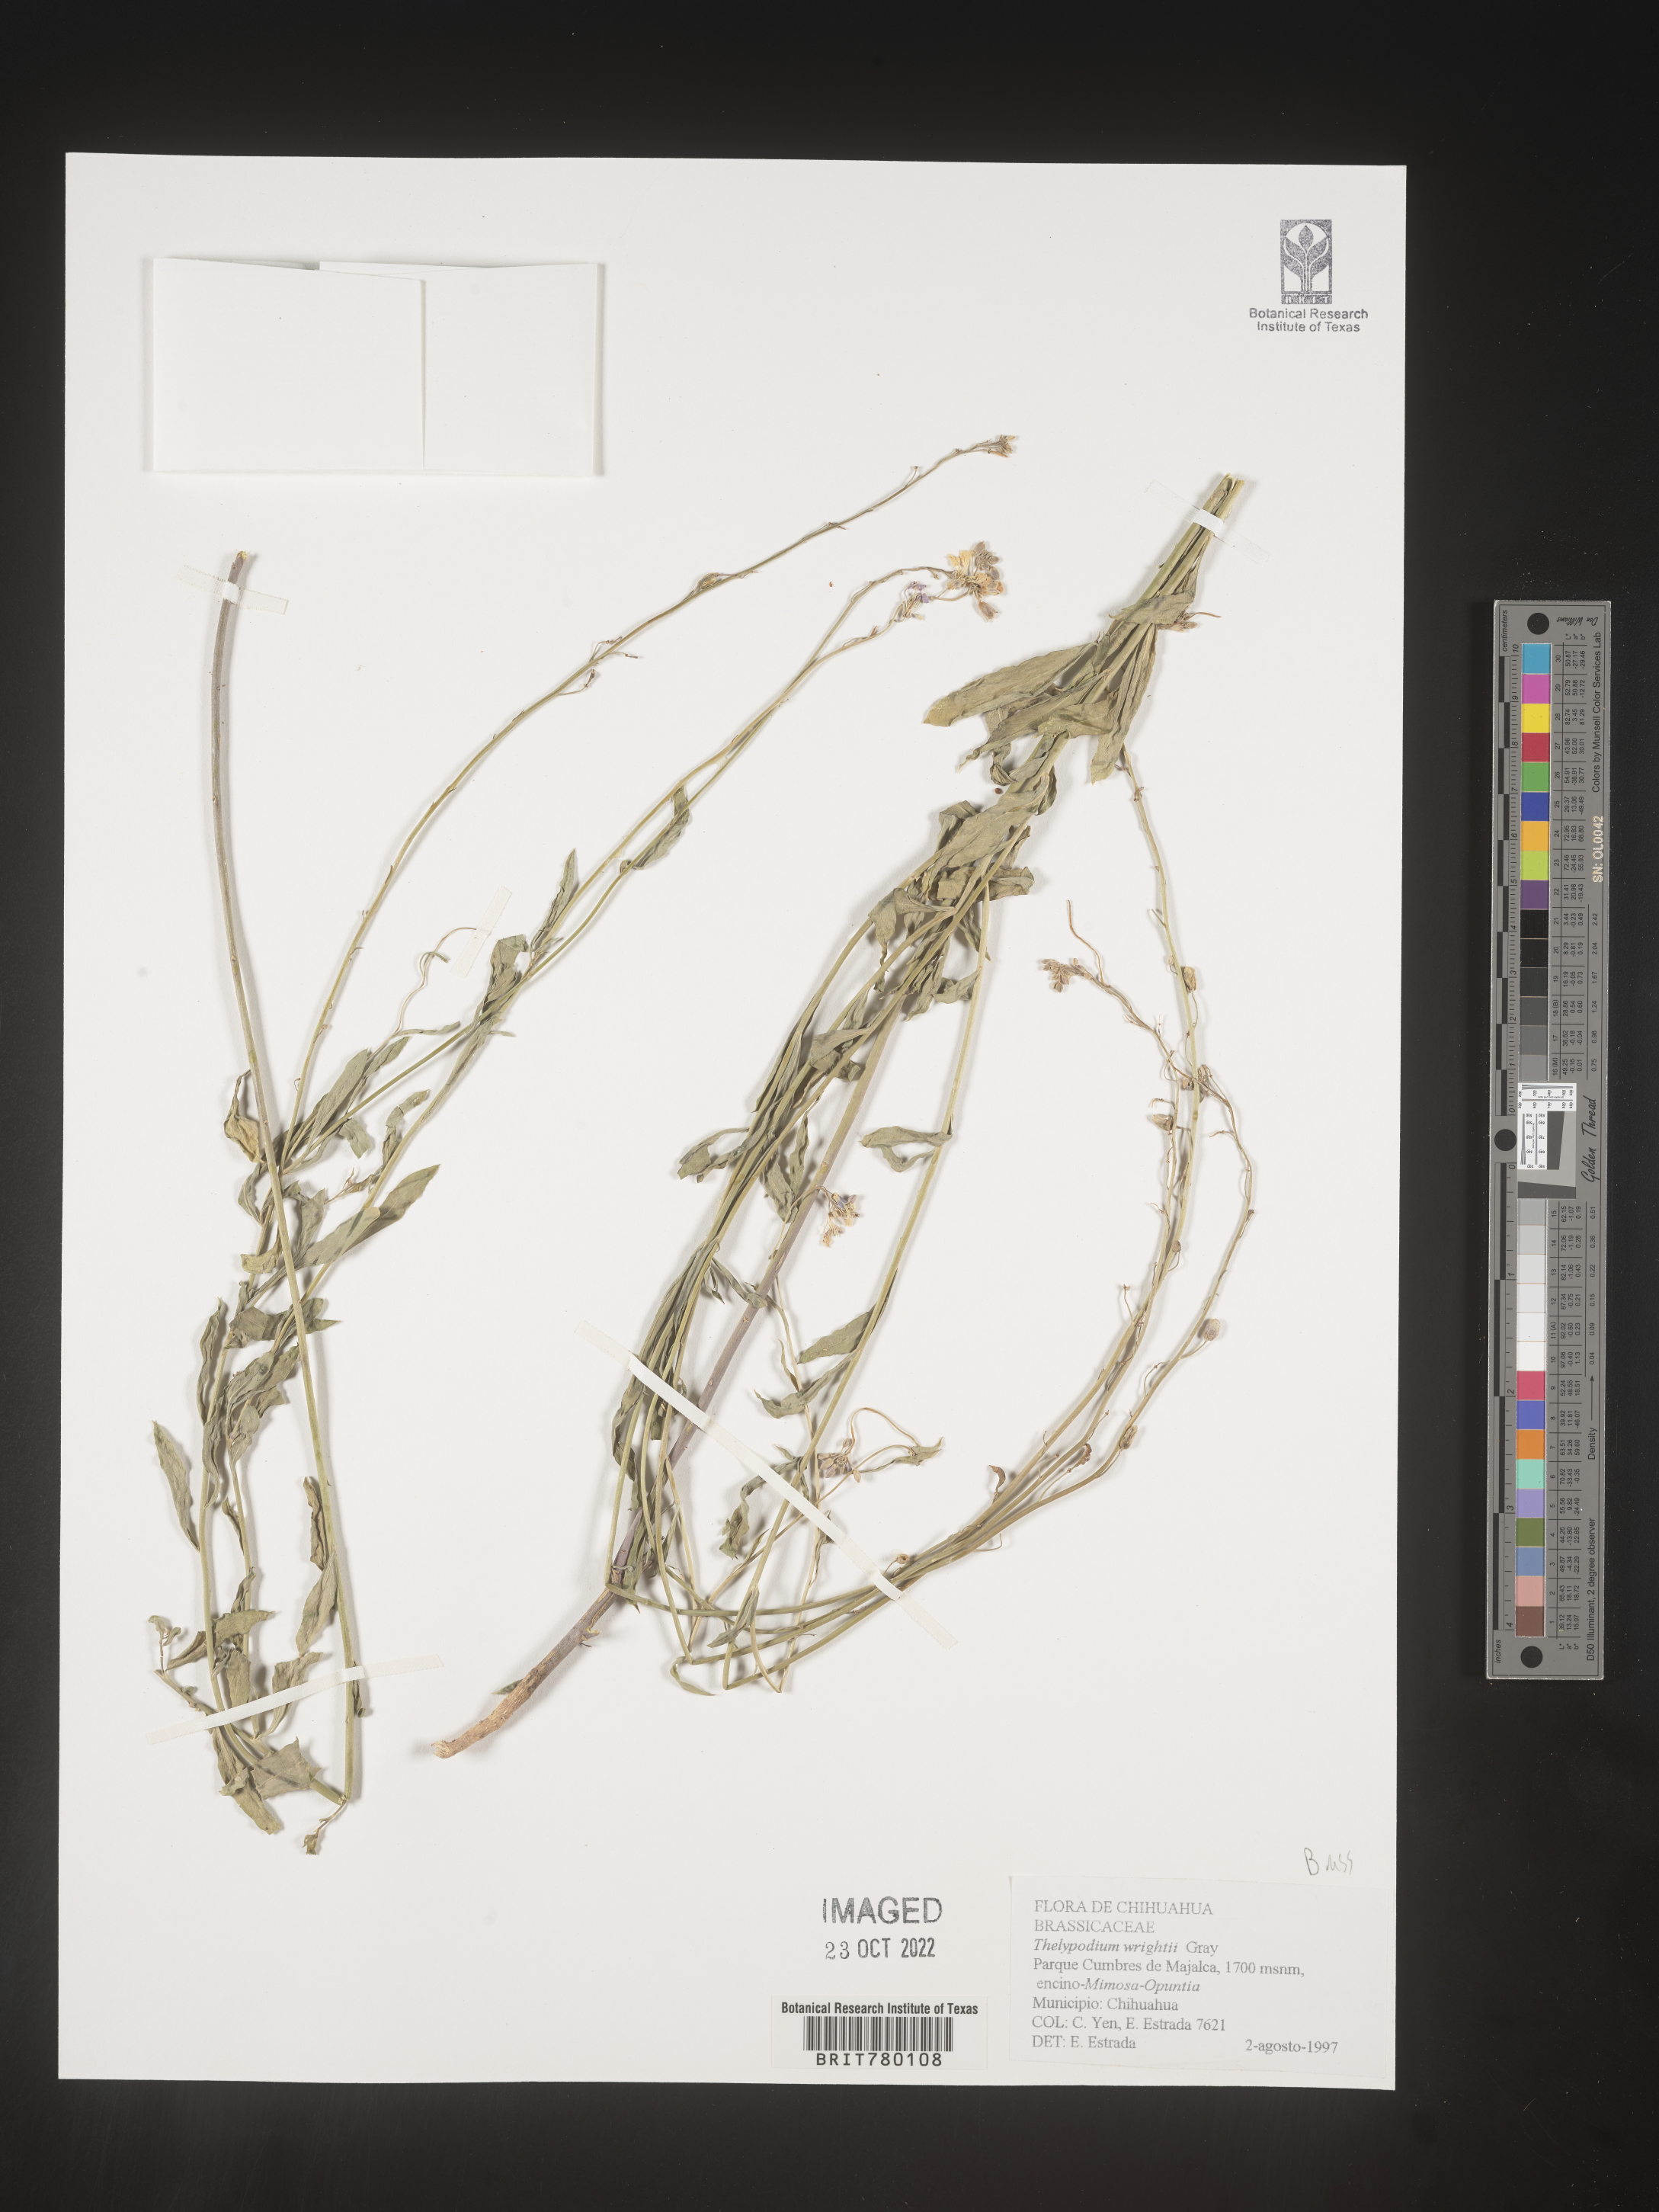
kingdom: Plantae
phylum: Tracheophyta
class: Magnoliopsida
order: Brassicales
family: Brassicaceae
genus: Thelypodium
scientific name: Thelypodium
